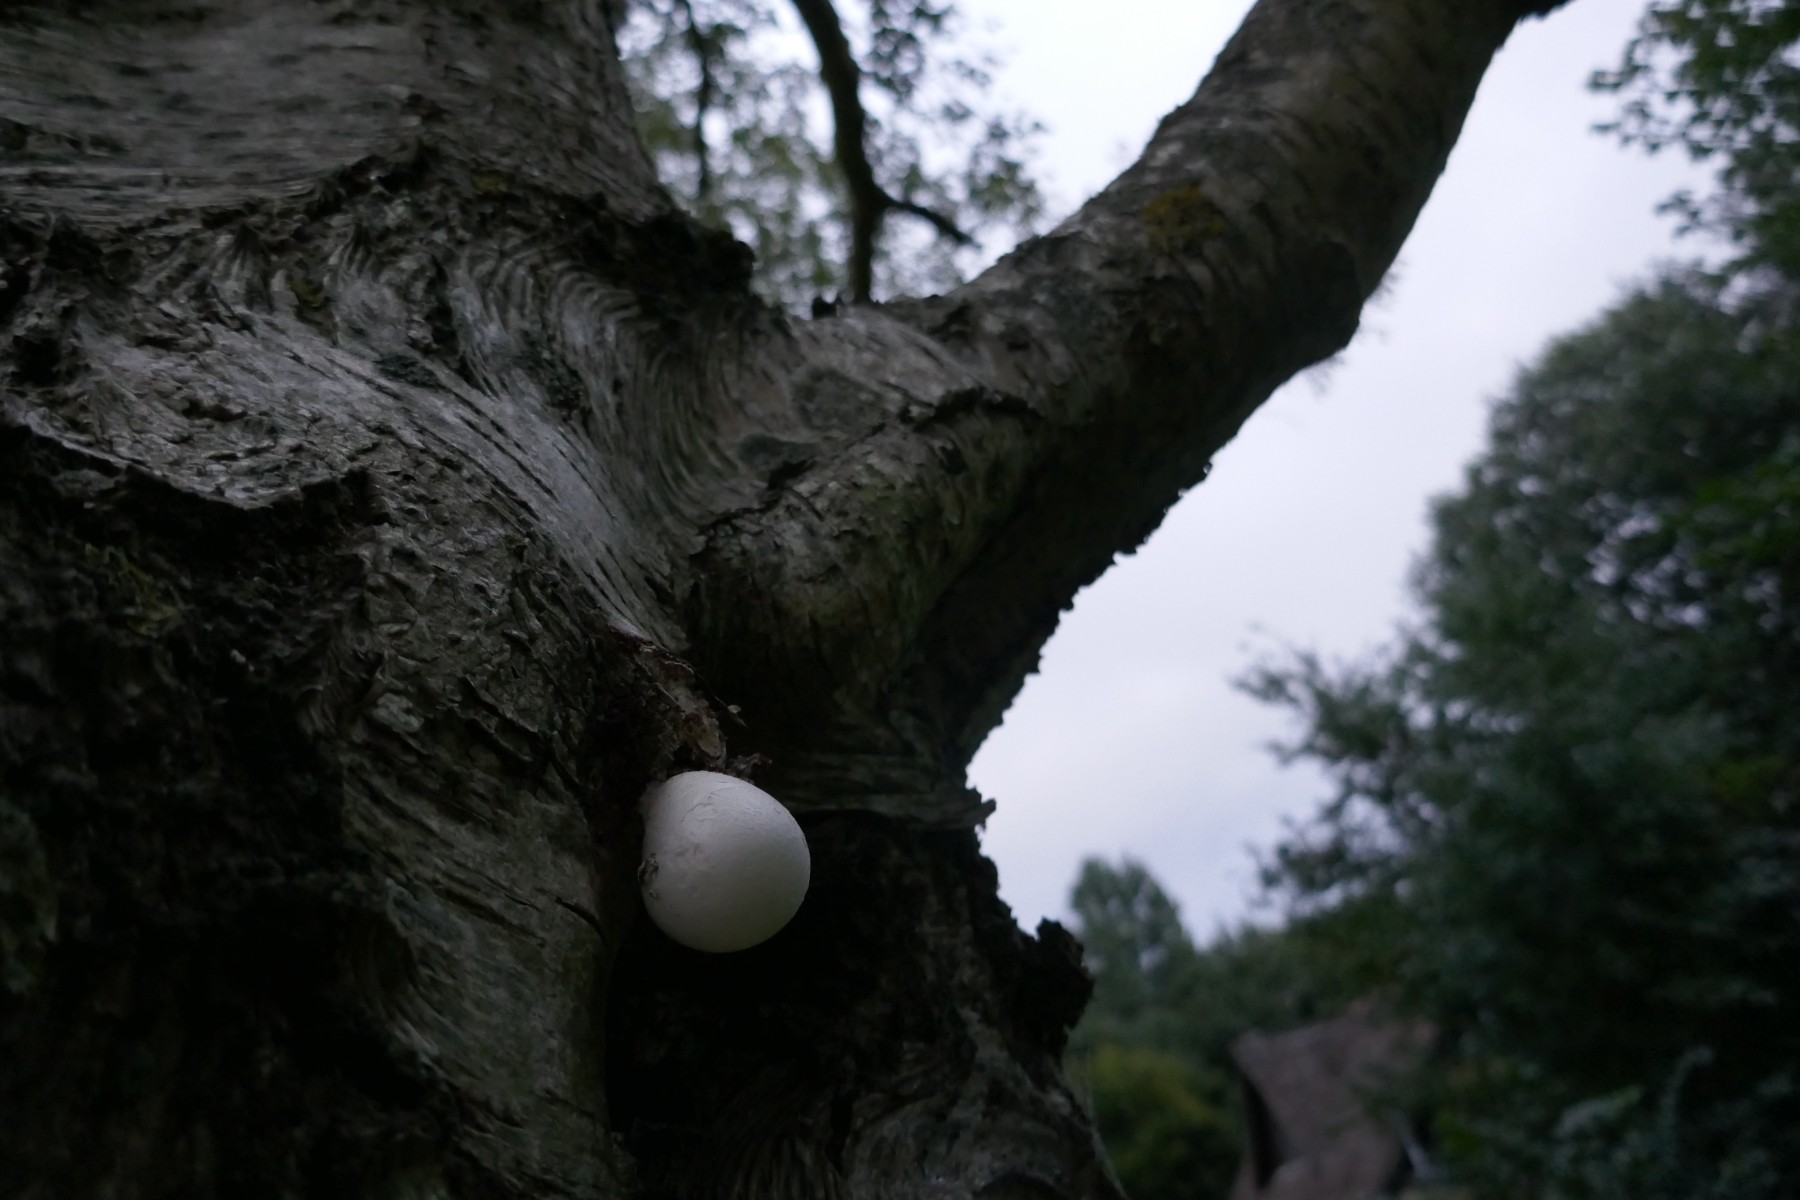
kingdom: Fungi
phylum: Basidiomycota
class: Agaricomycetes
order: Polyporales
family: Fomitopsidaceae
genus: Fomitopsis
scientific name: Fomitopsis betulina
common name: birkeporesvamp
